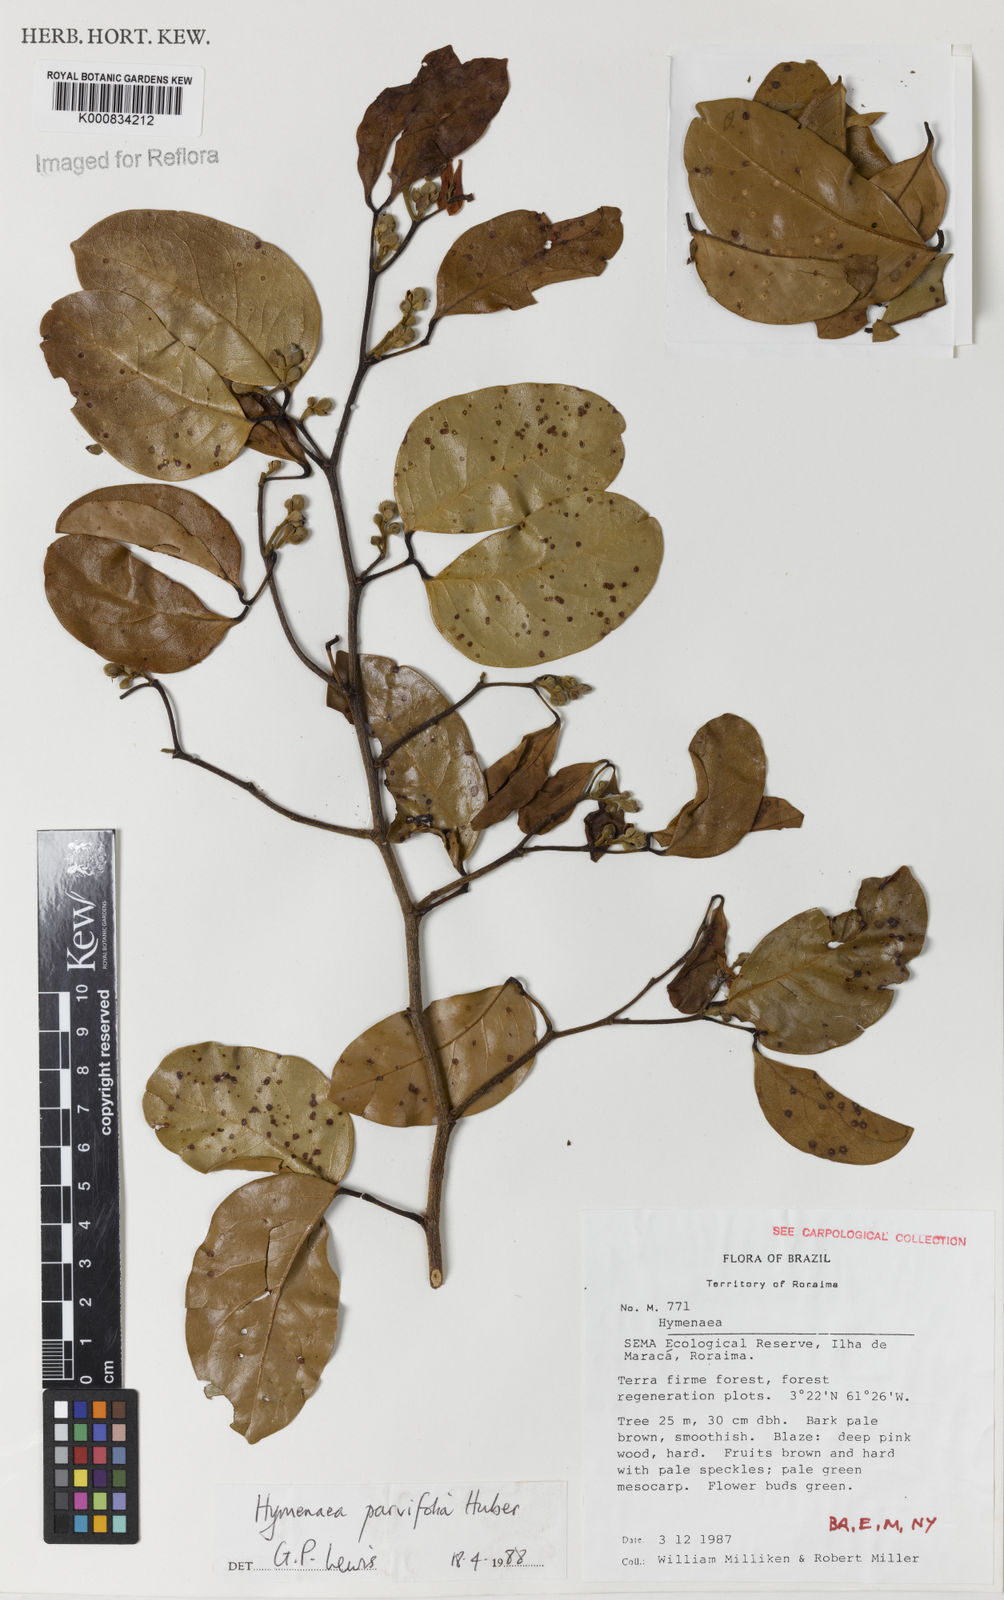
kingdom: Plantae
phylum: Tracheophyta
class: Magnoliopsida
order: Fabales
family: Fabaceae
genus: Hymenaea
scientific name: Hymenaea parvifolia
